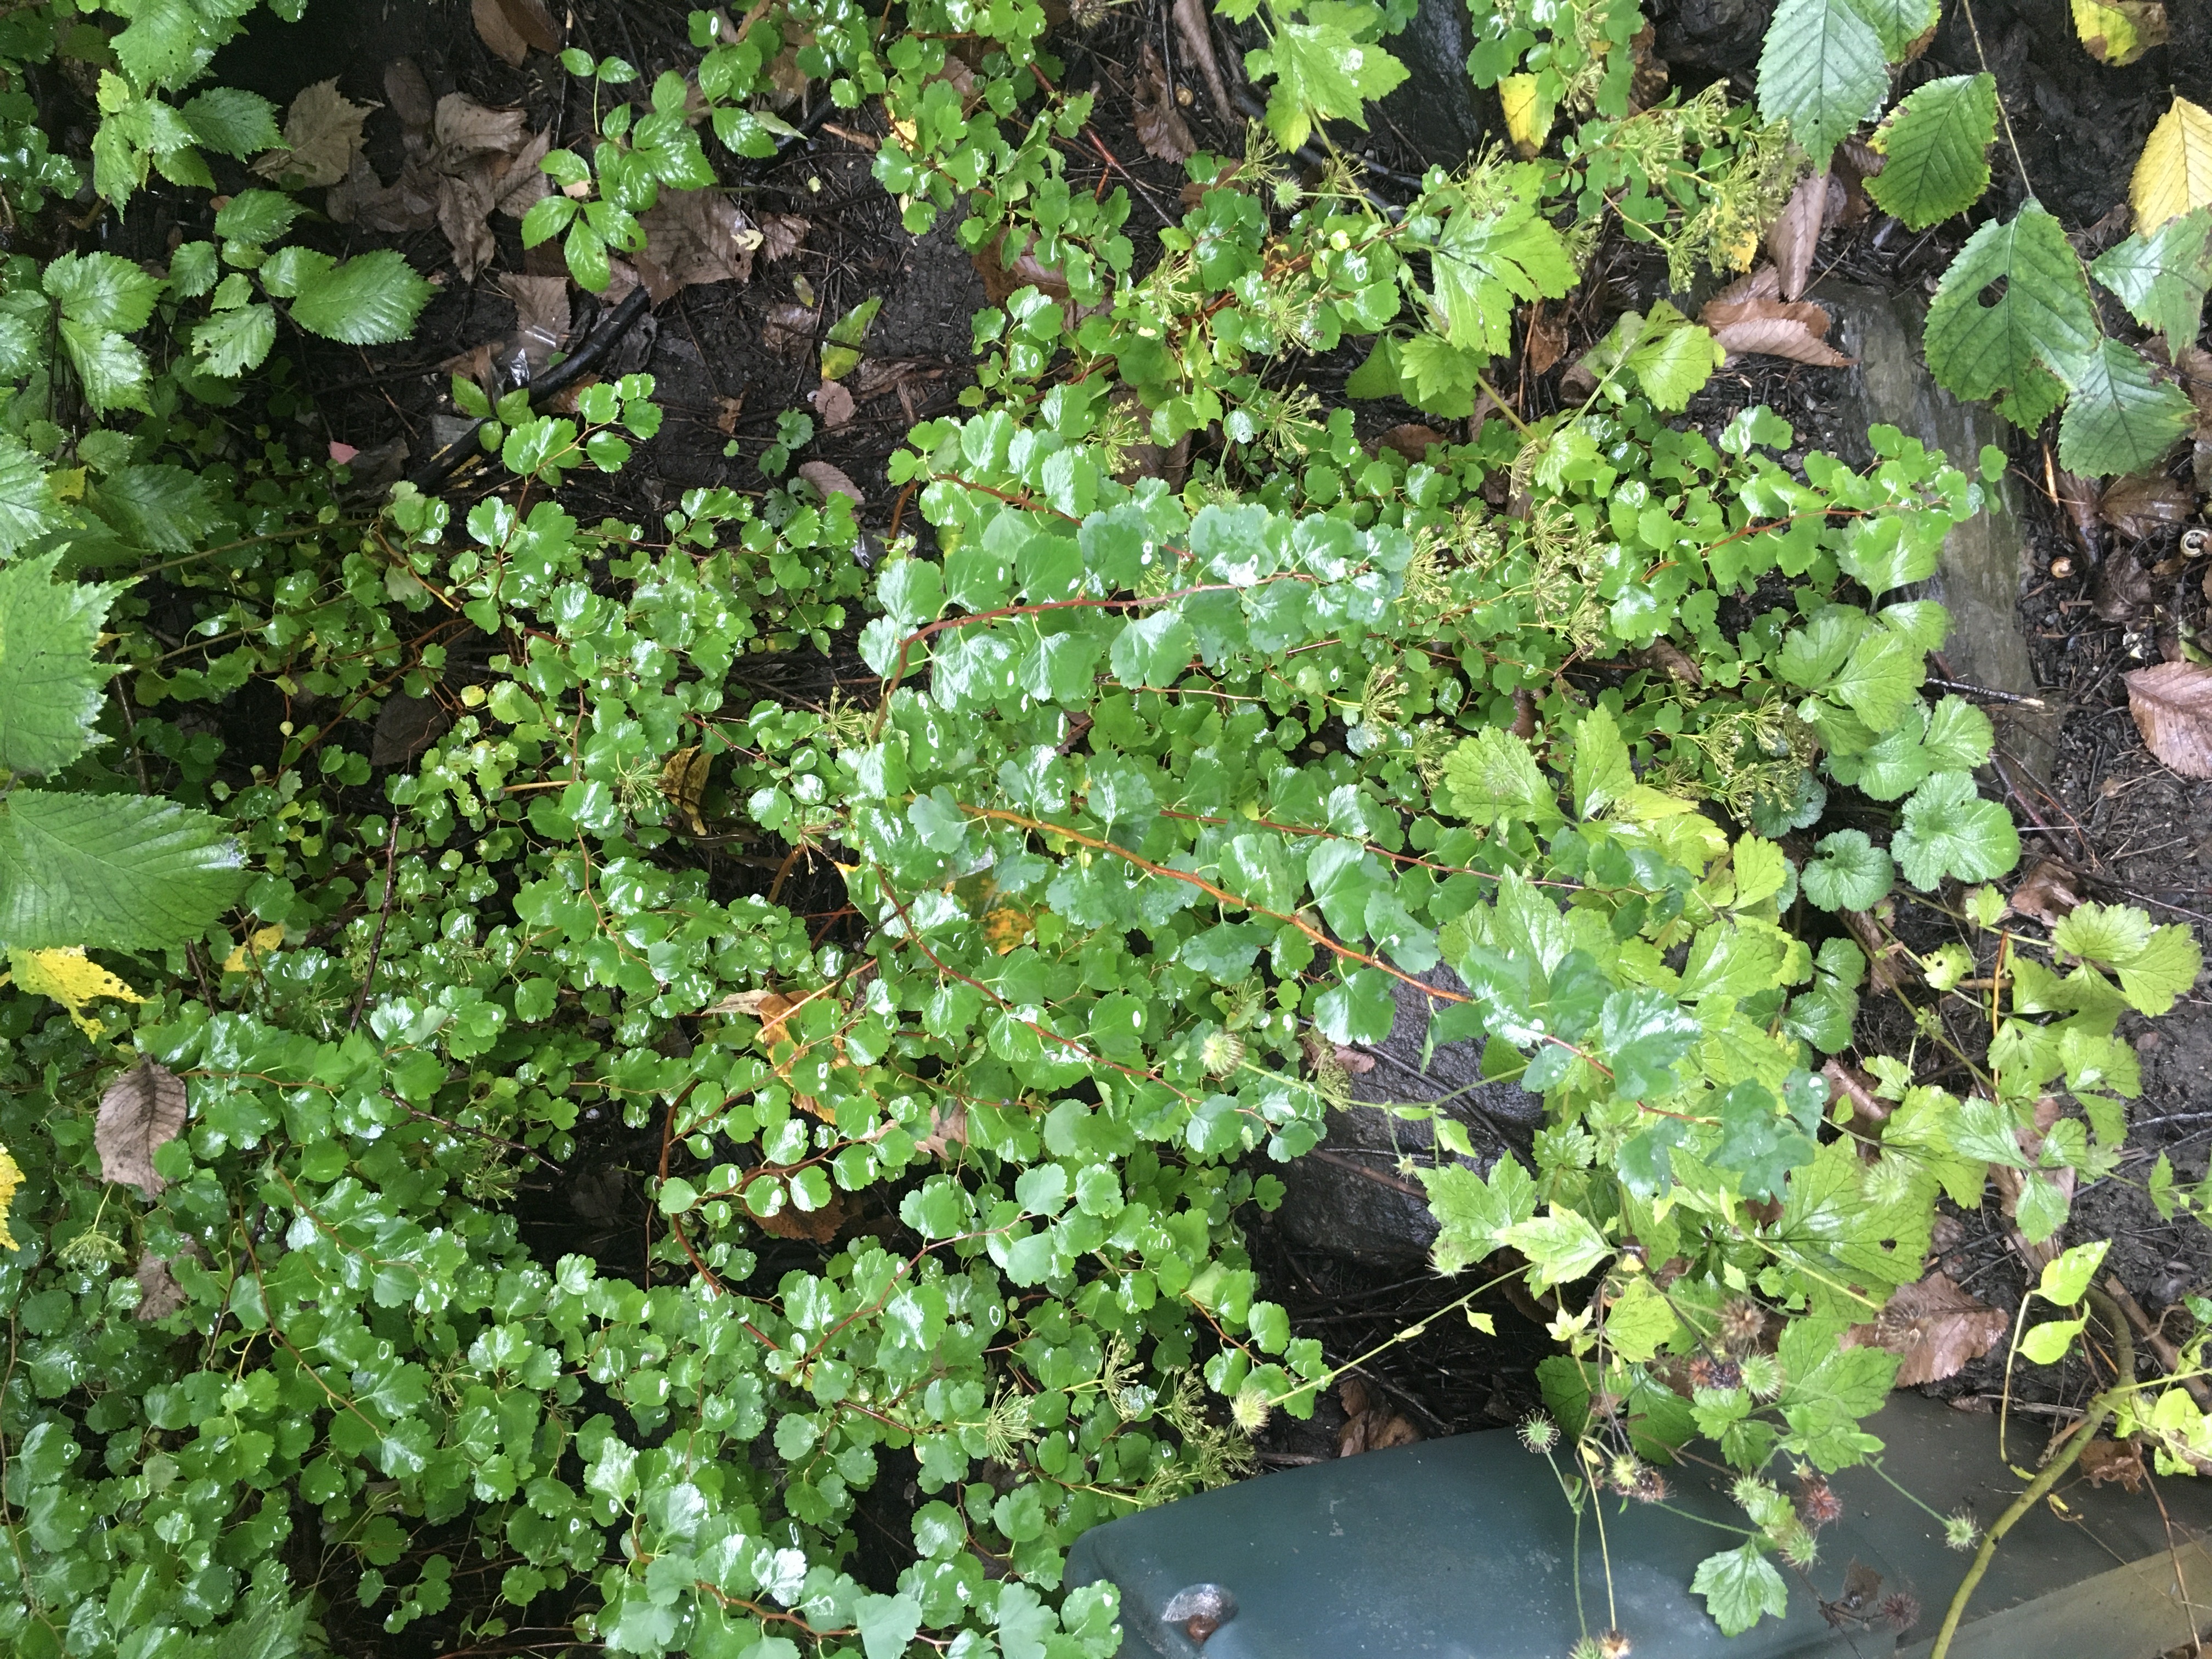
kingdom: Plantae
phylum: Tracheophyta
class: Magnoliopsida
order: Rosales
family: Rosaceae
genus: Spiraea
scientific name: Spiraea trilobata
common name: sibirspirea
